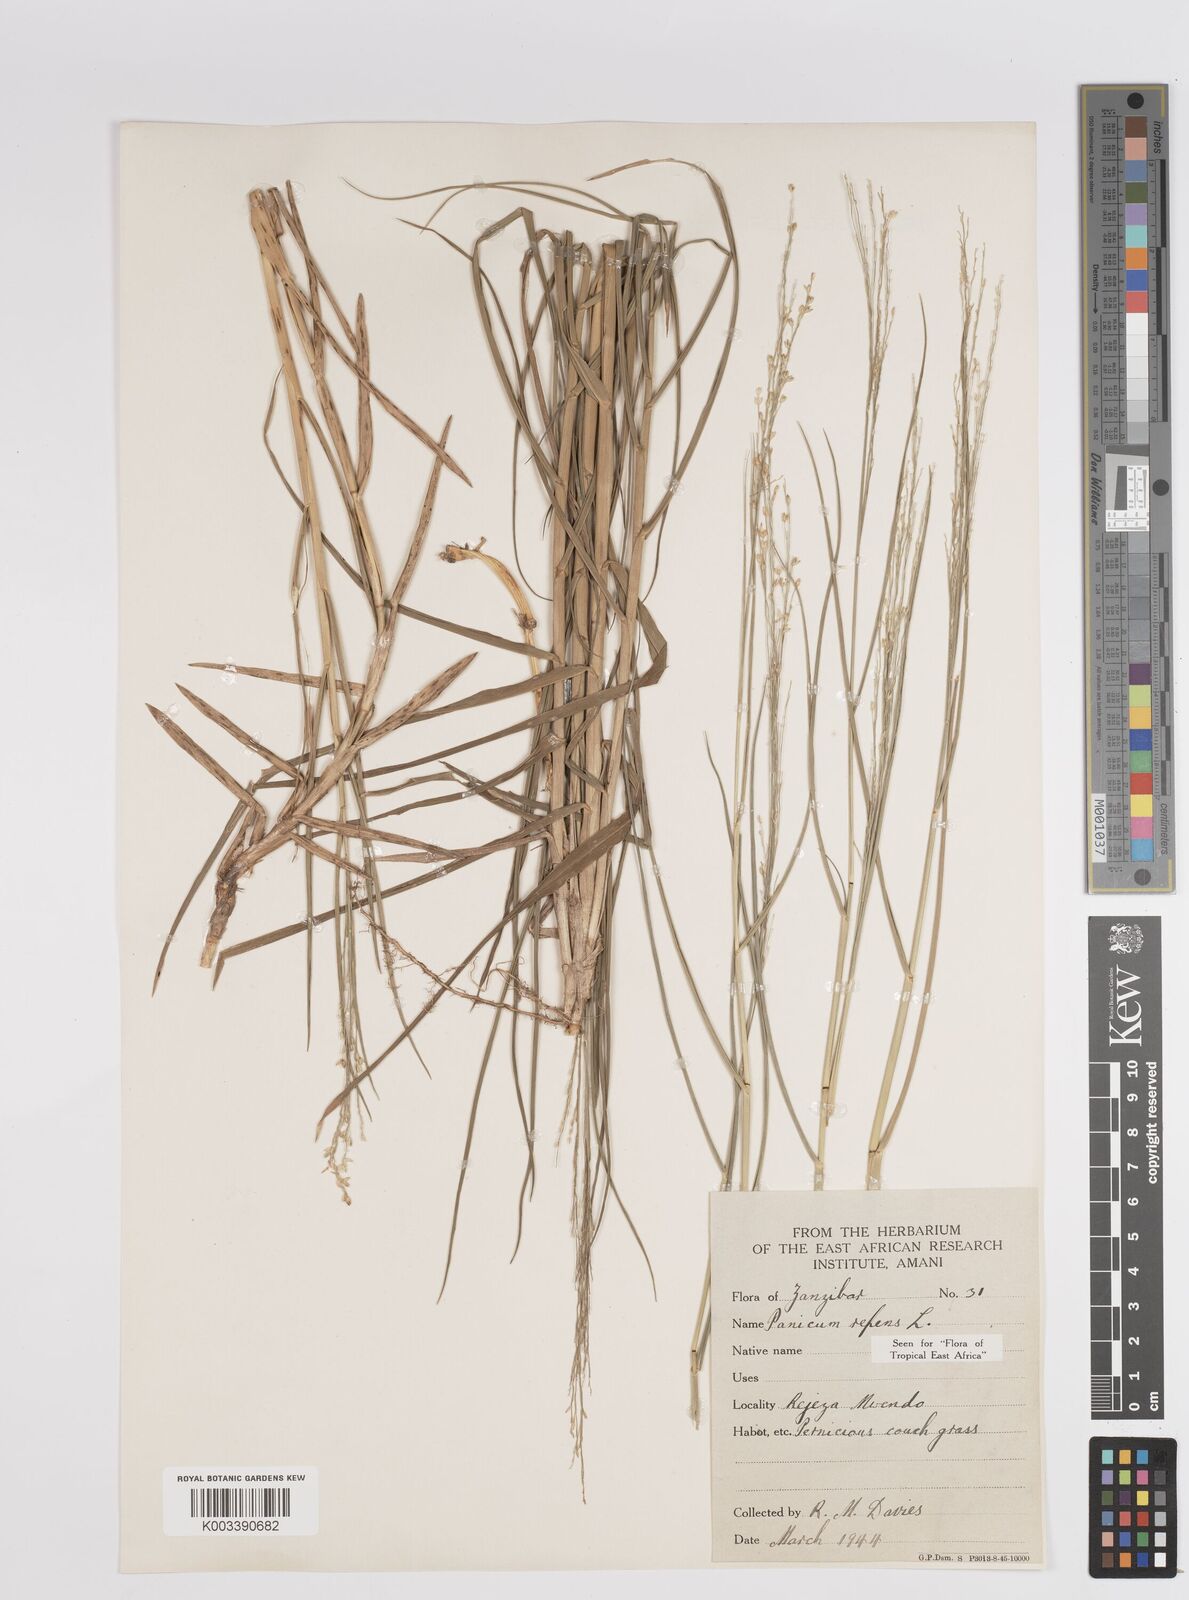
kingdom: Plantae
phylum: Tracheophyta
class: Liliopsida
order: Poales
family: Poaceae
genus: Panicum
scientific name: Panicum repens
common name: Torpedo grass
